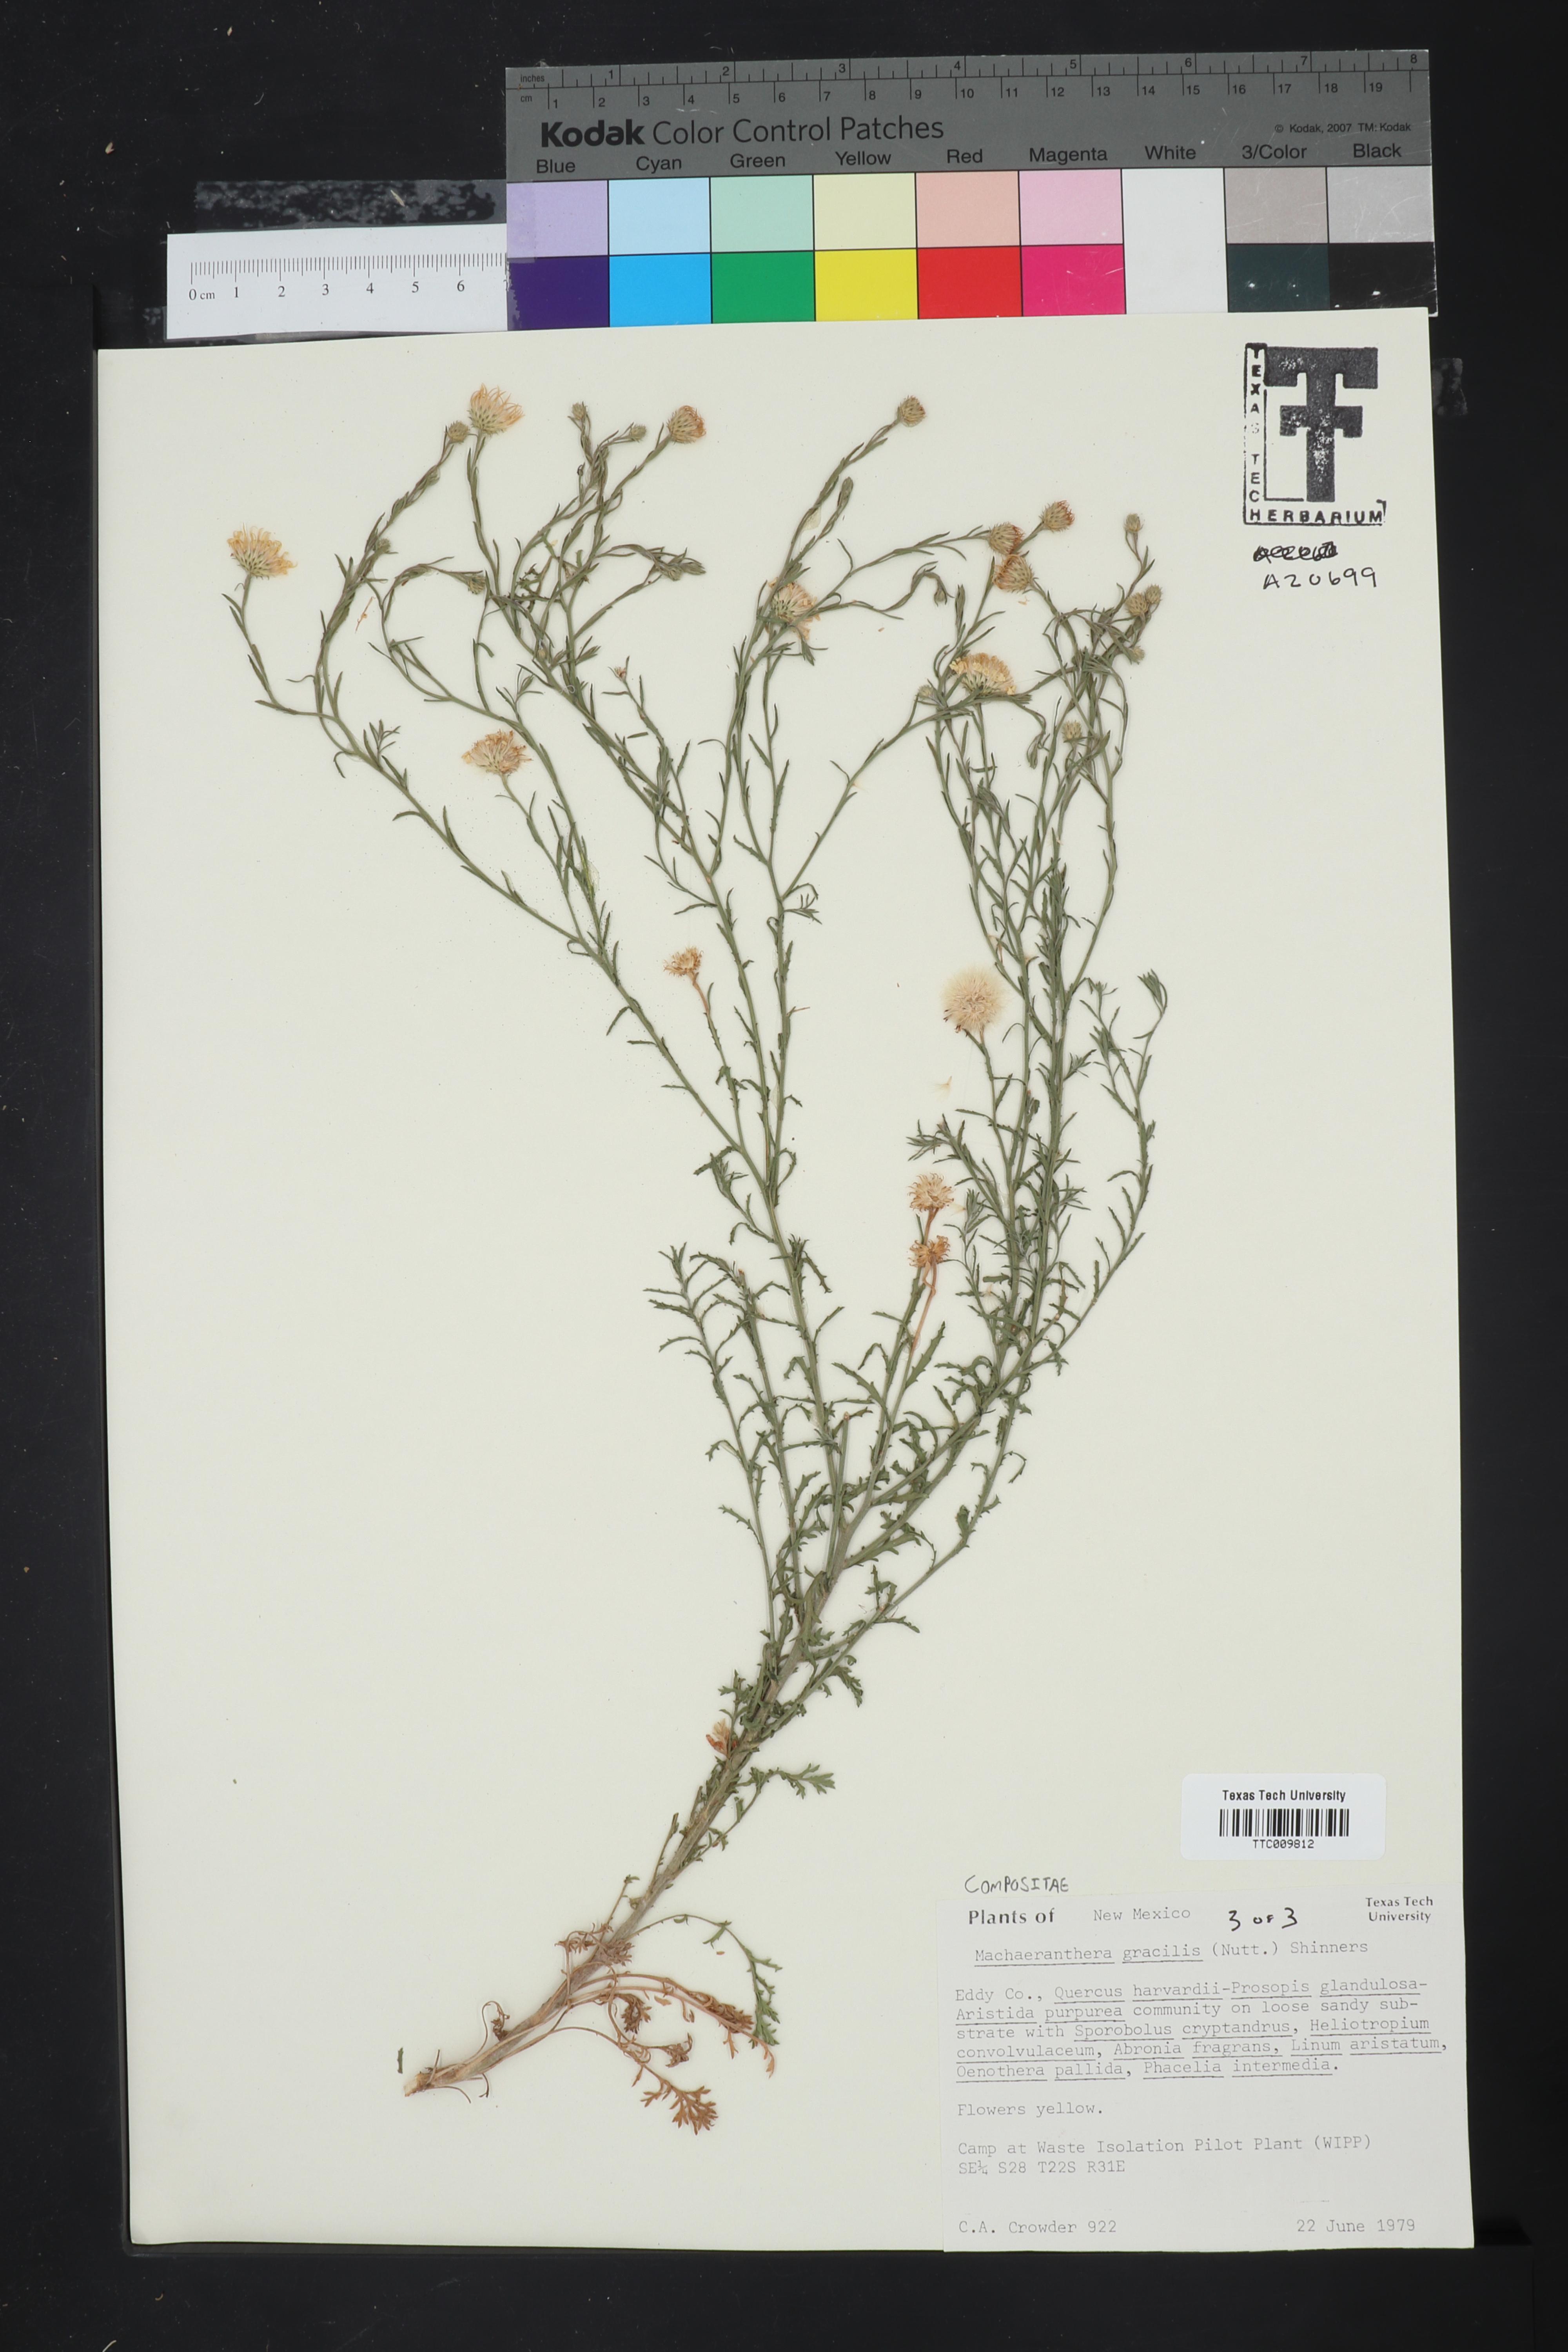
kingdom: Plantae
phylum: Tracheophyta
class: Magnoliopsida
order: Asterales
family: Asteraceae
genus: Xanthisma
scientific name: Xanthisma gracile
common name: Slender goldenweed
